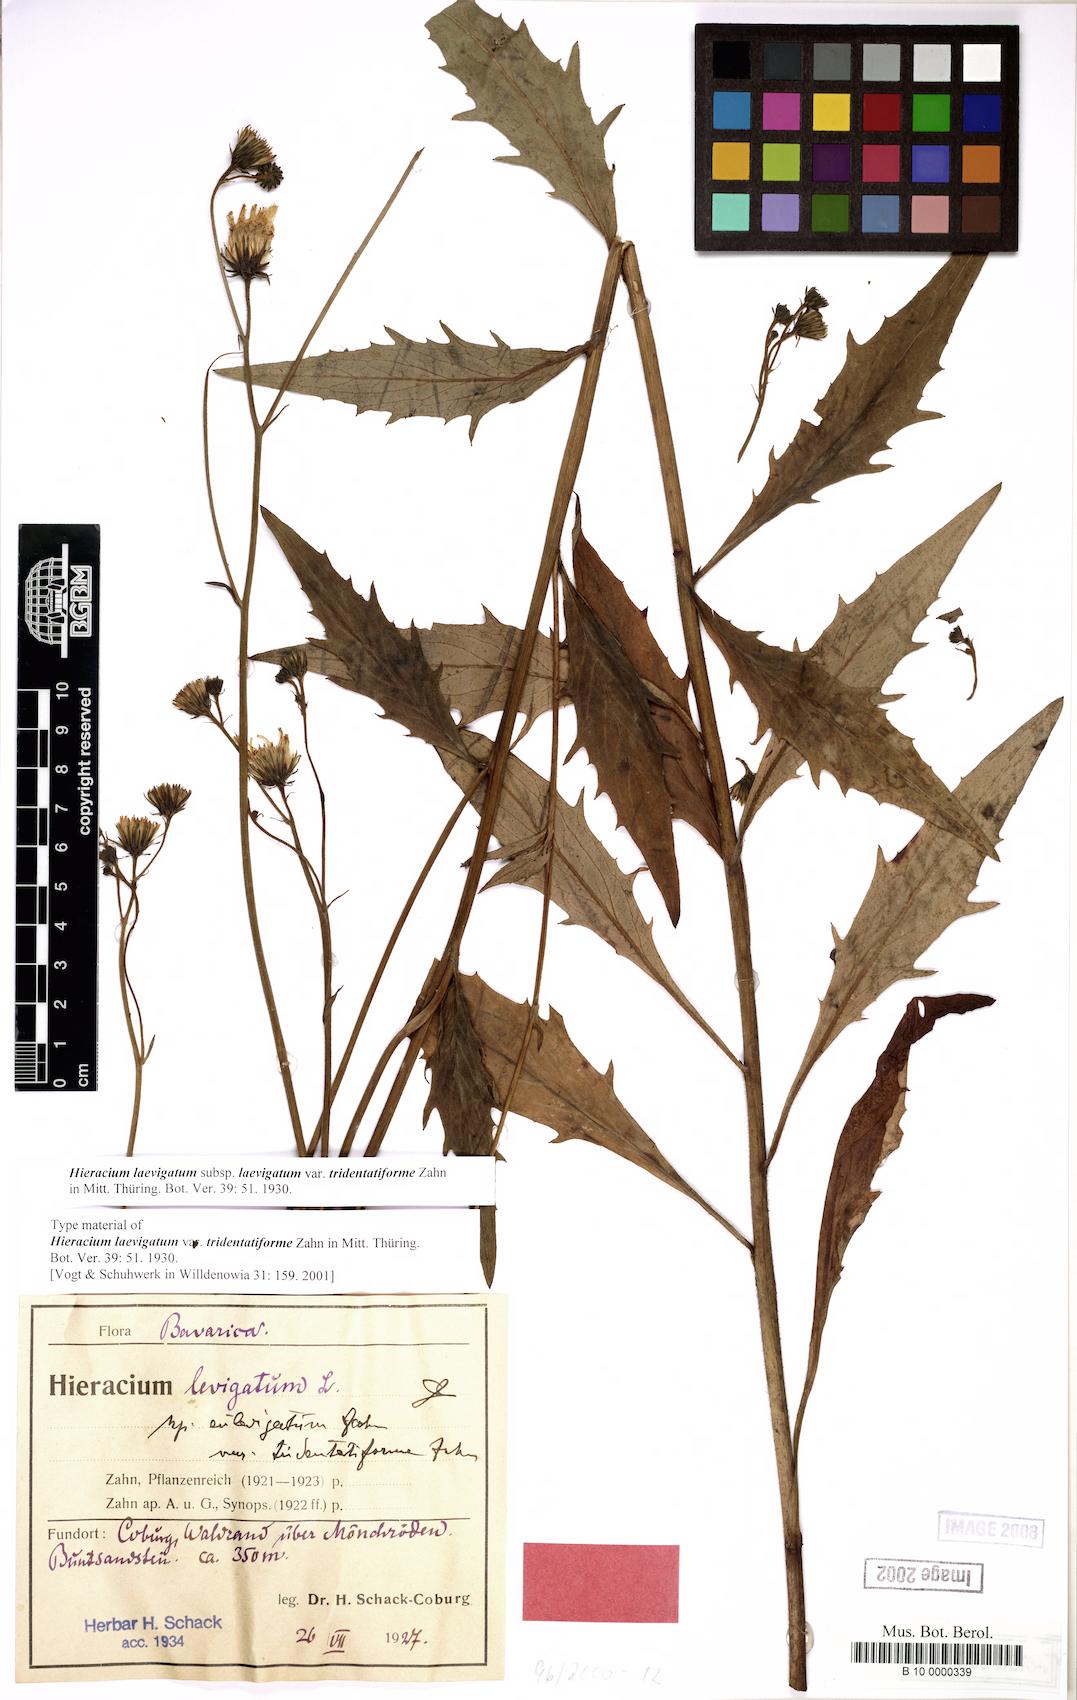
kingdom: Plantae
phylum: Tracheophyta
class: Magnoliopsida
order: Asterales
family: Asteraceae
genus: Hieracium
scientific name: Hieracium laevigatum
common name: Smooth hawkweed
